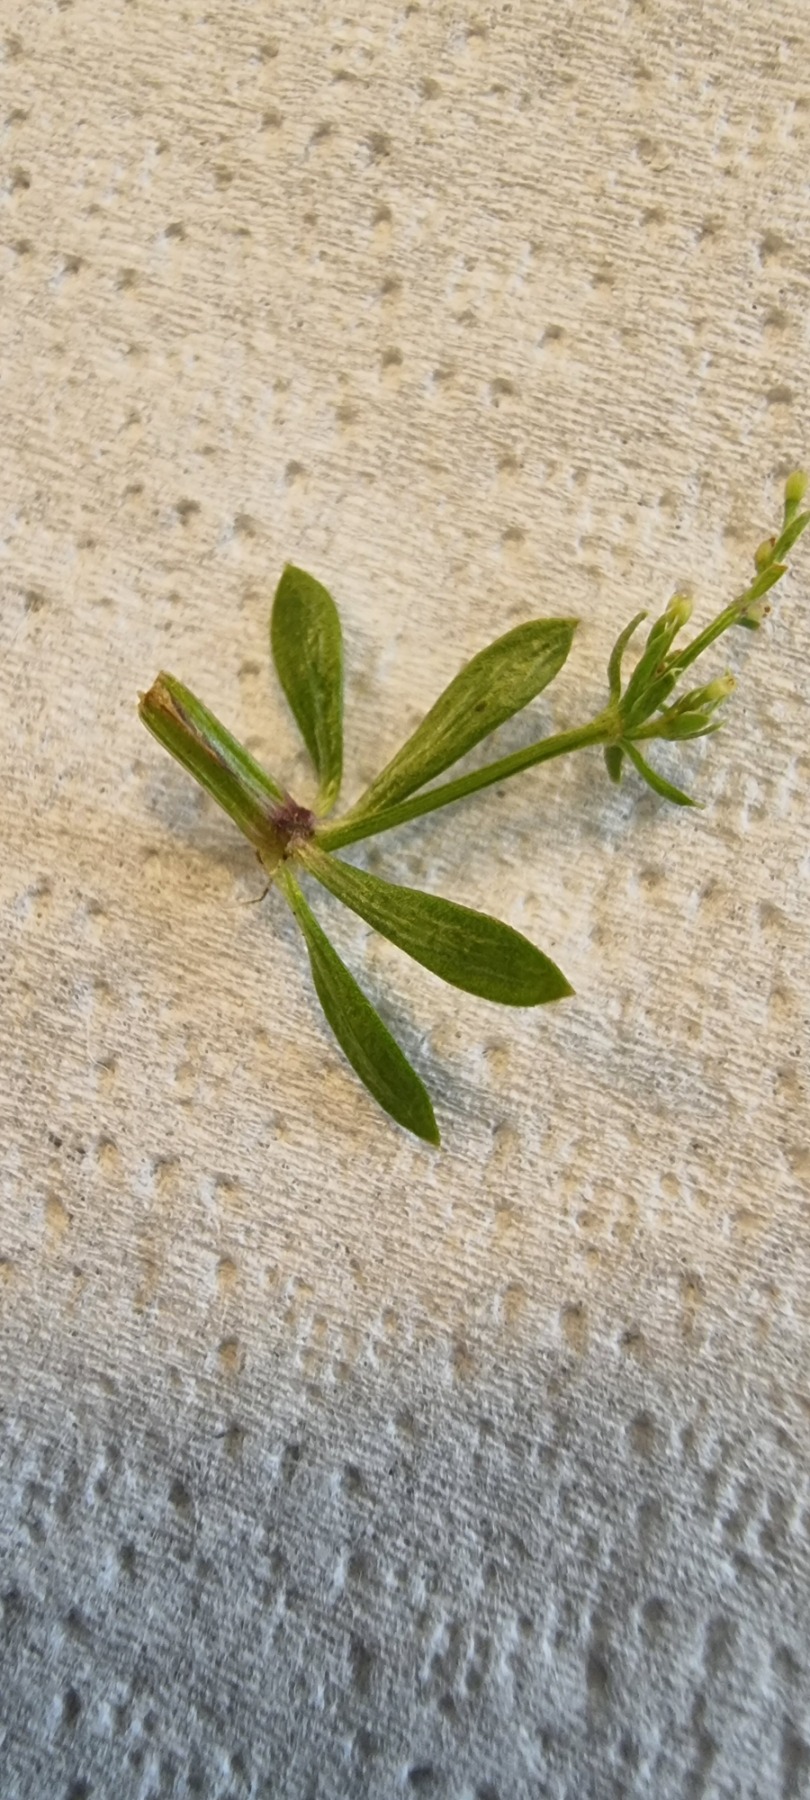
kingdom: Plantae
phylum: Tracheophyta
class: Magnoliopsida
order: Gentianales
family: Rubiaceae
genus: Galium
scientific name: Galium mollugo
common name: Hvid snerre
